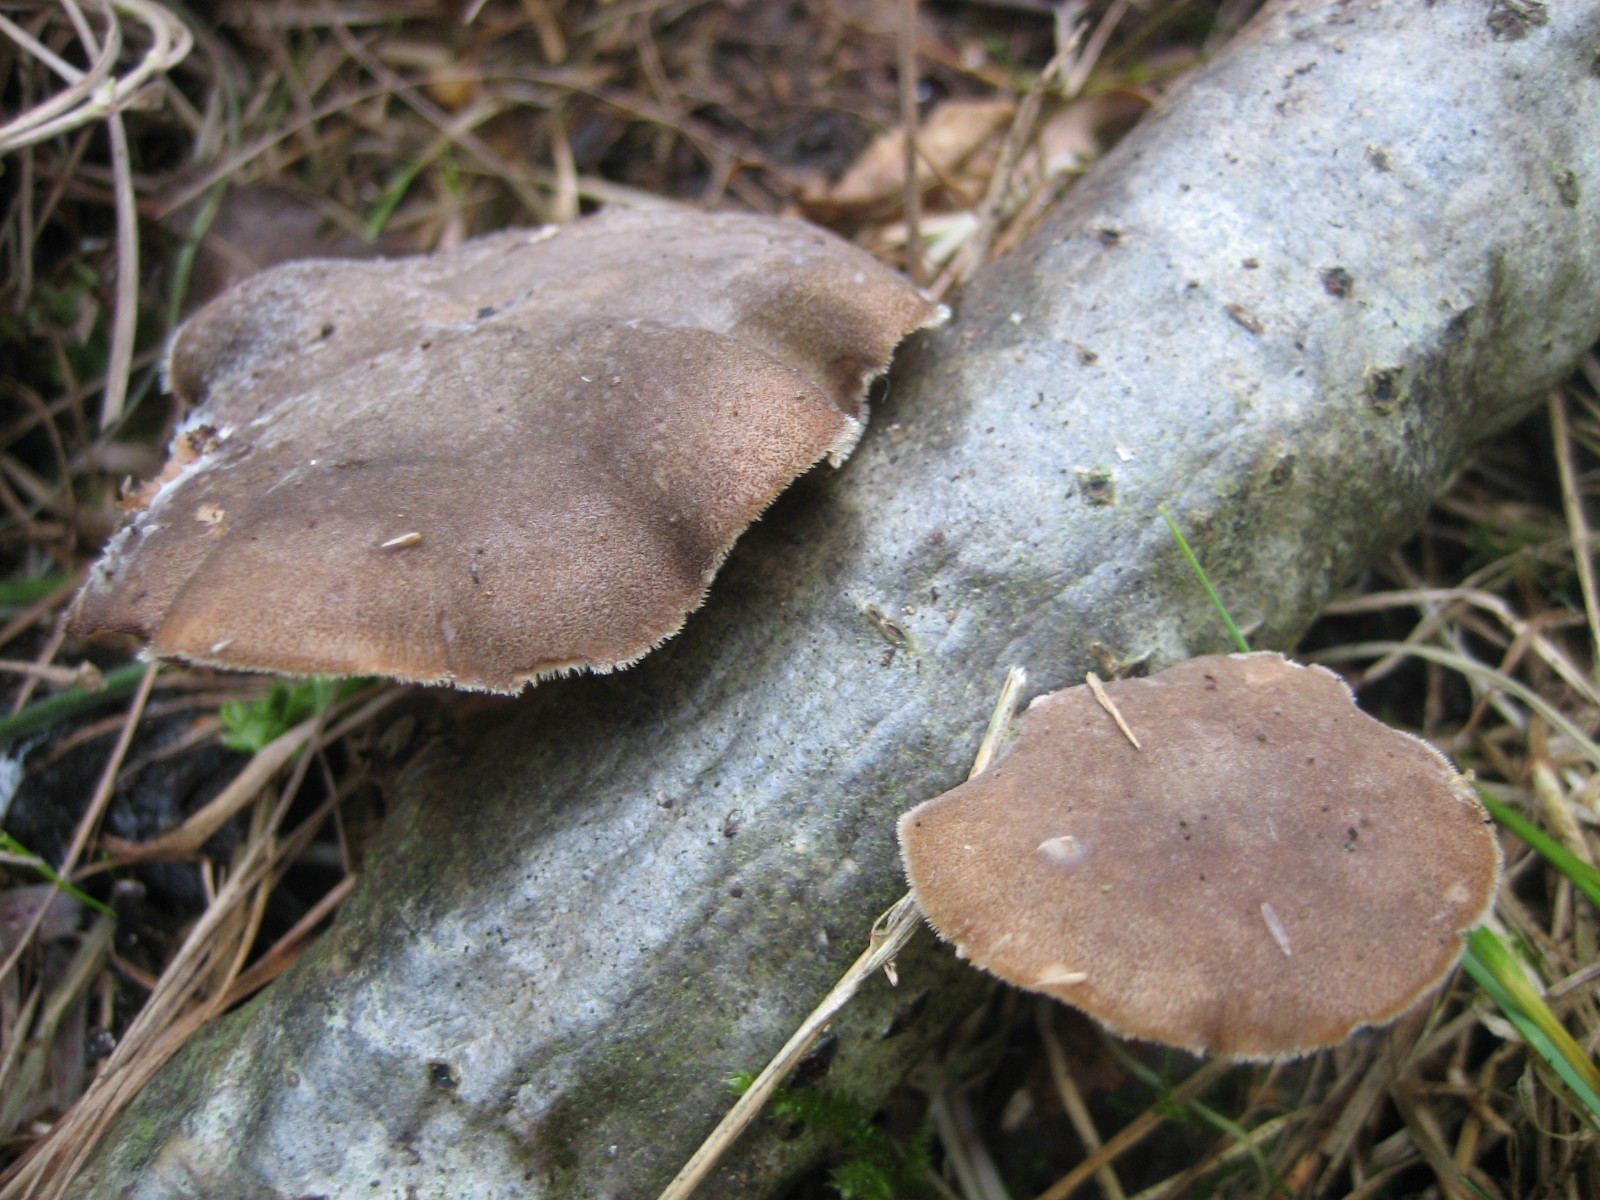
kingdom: Fungi
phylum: Basidiomycota
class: Agaricomycetes
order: Polyporales
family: Polyporaceae
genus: Lentinus
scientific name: Lentinus brumalis
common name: vinter-stilkporesvamp
